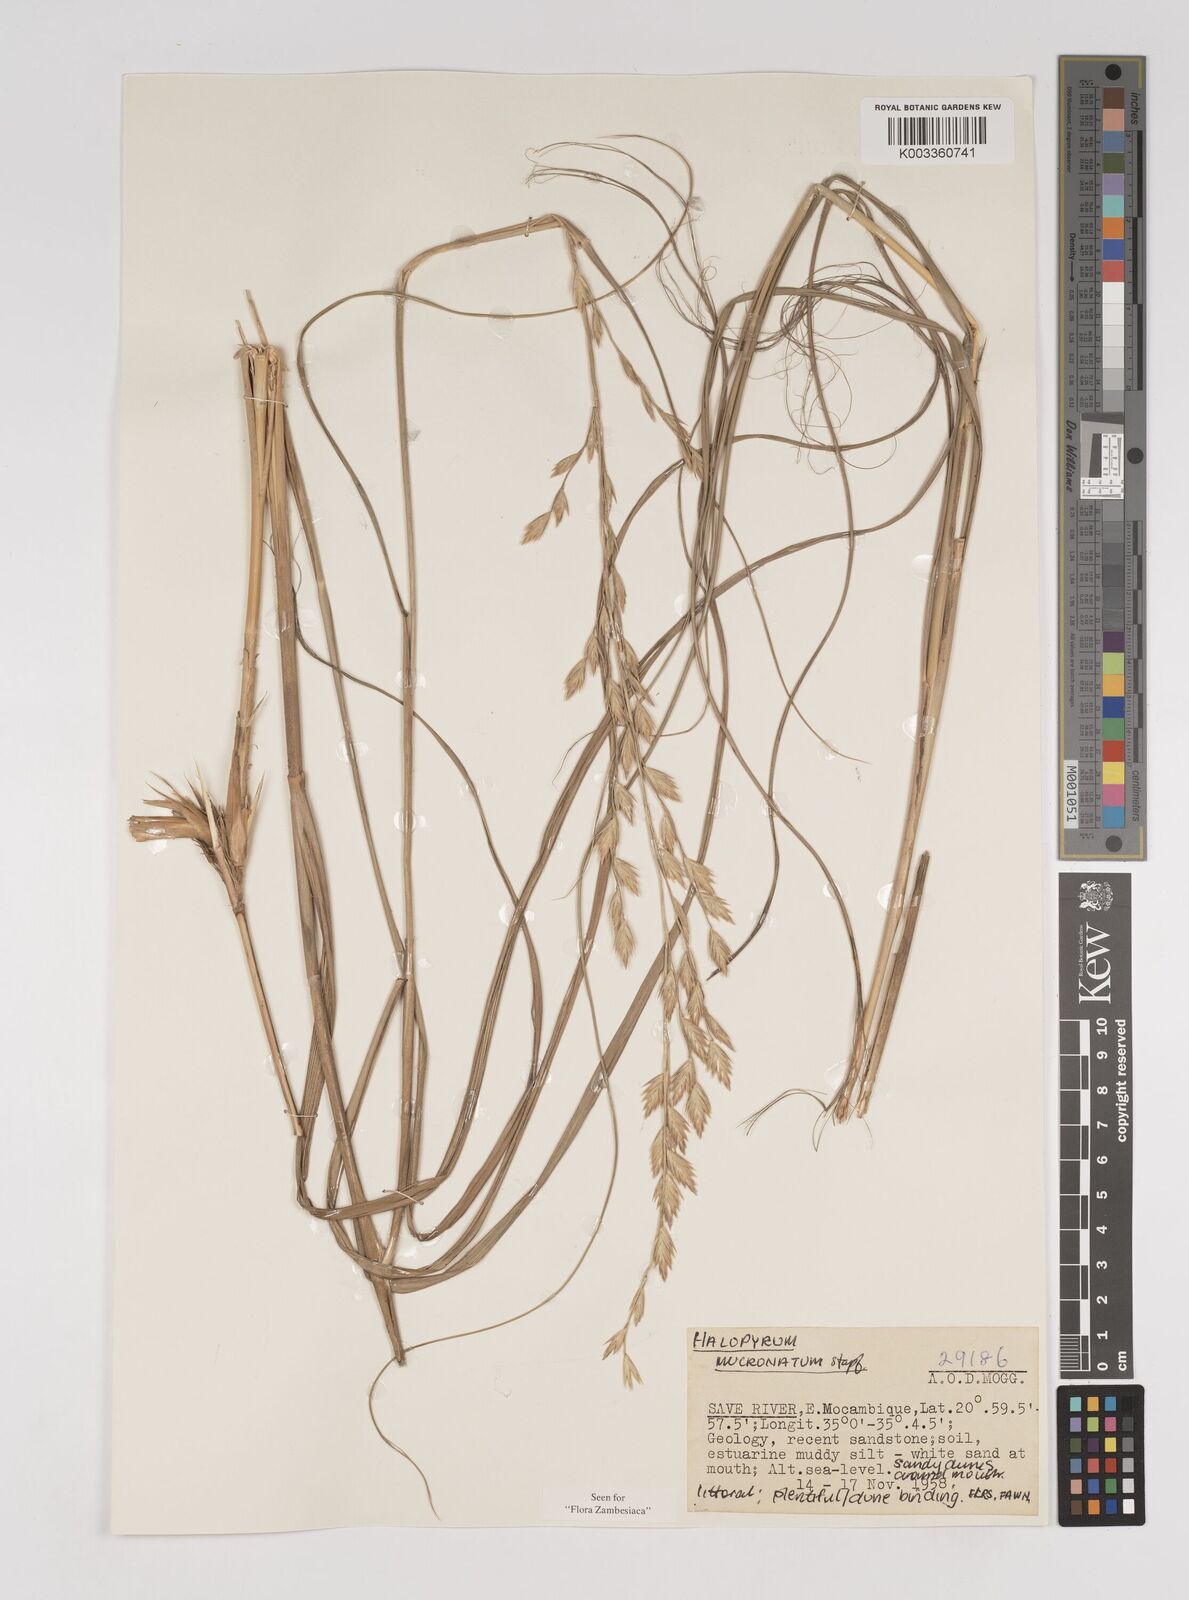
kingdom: Plantae
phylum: Tracheophyta
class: Liliopsida
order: Poales
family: Poaceae
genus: Halopyrum
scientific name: Halopyrum mucronatum
